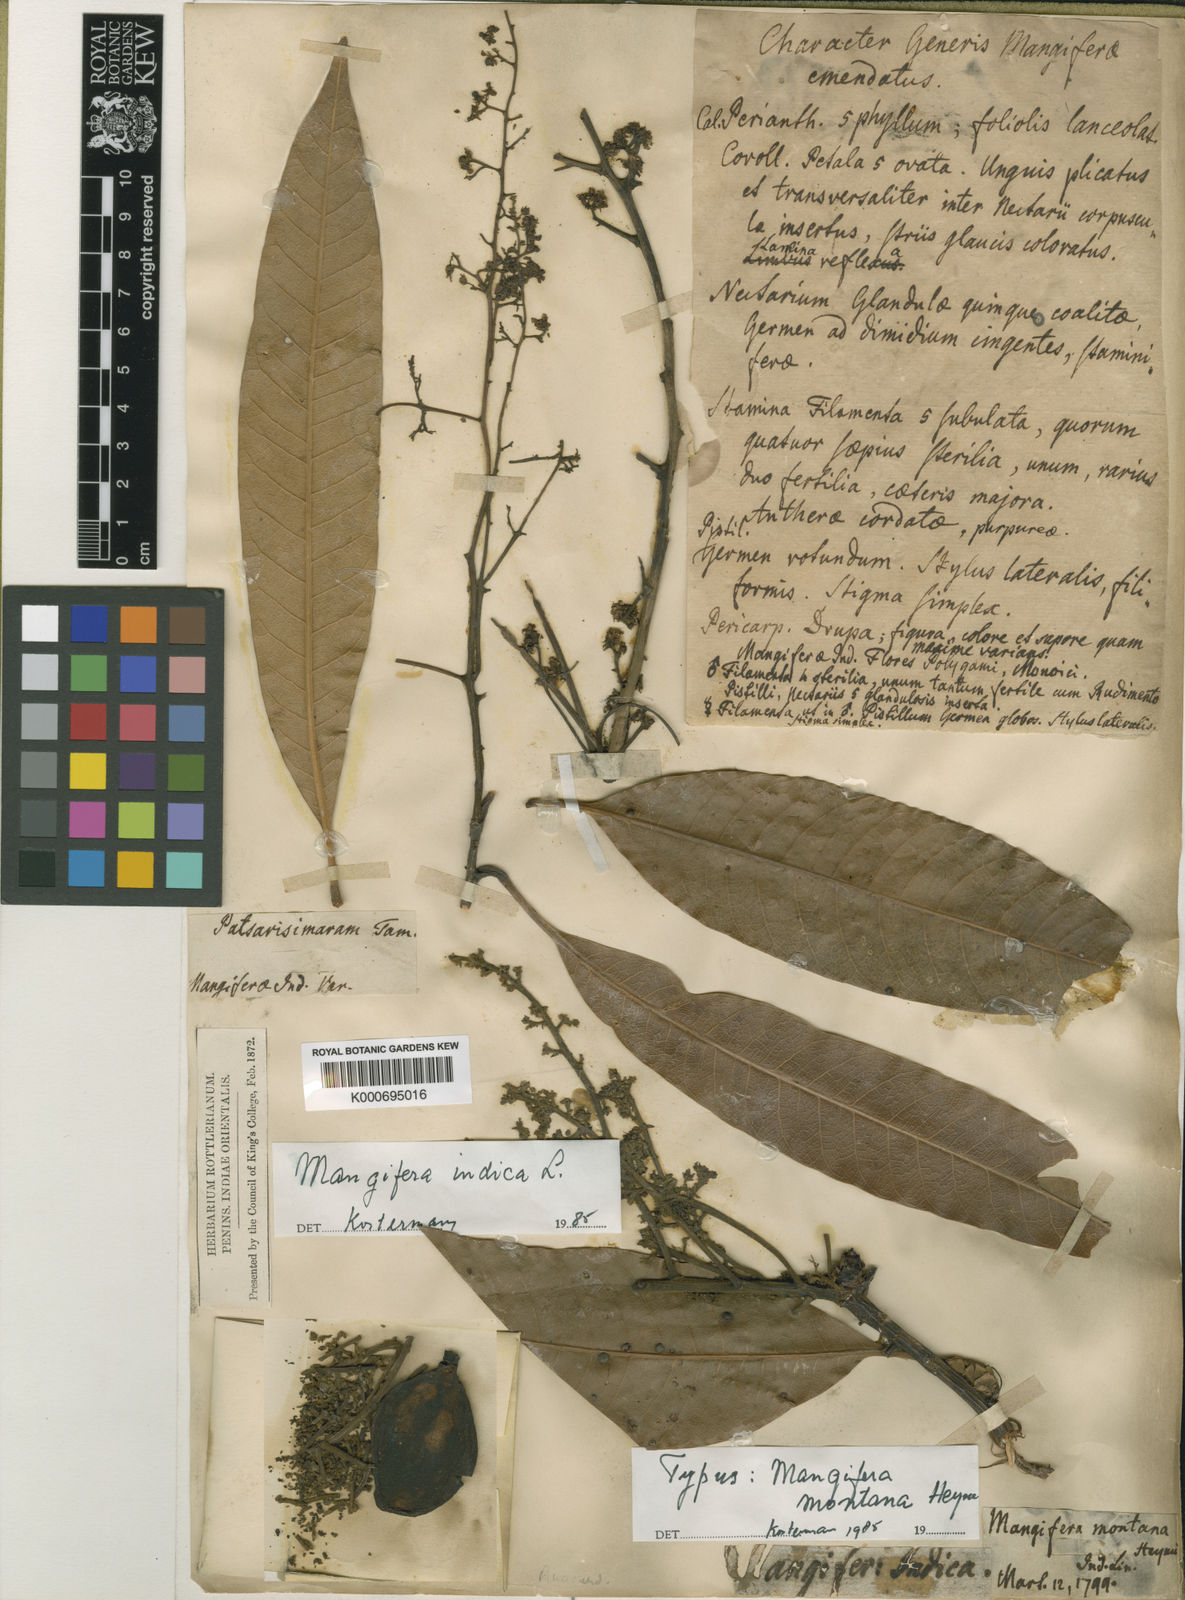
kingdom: Plantae
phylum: Tracheophyta
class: Magnoliopsida
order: Sapindales
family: Anacardiaceae
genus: Mangifera
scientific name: Mangifera indica
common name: Mango
